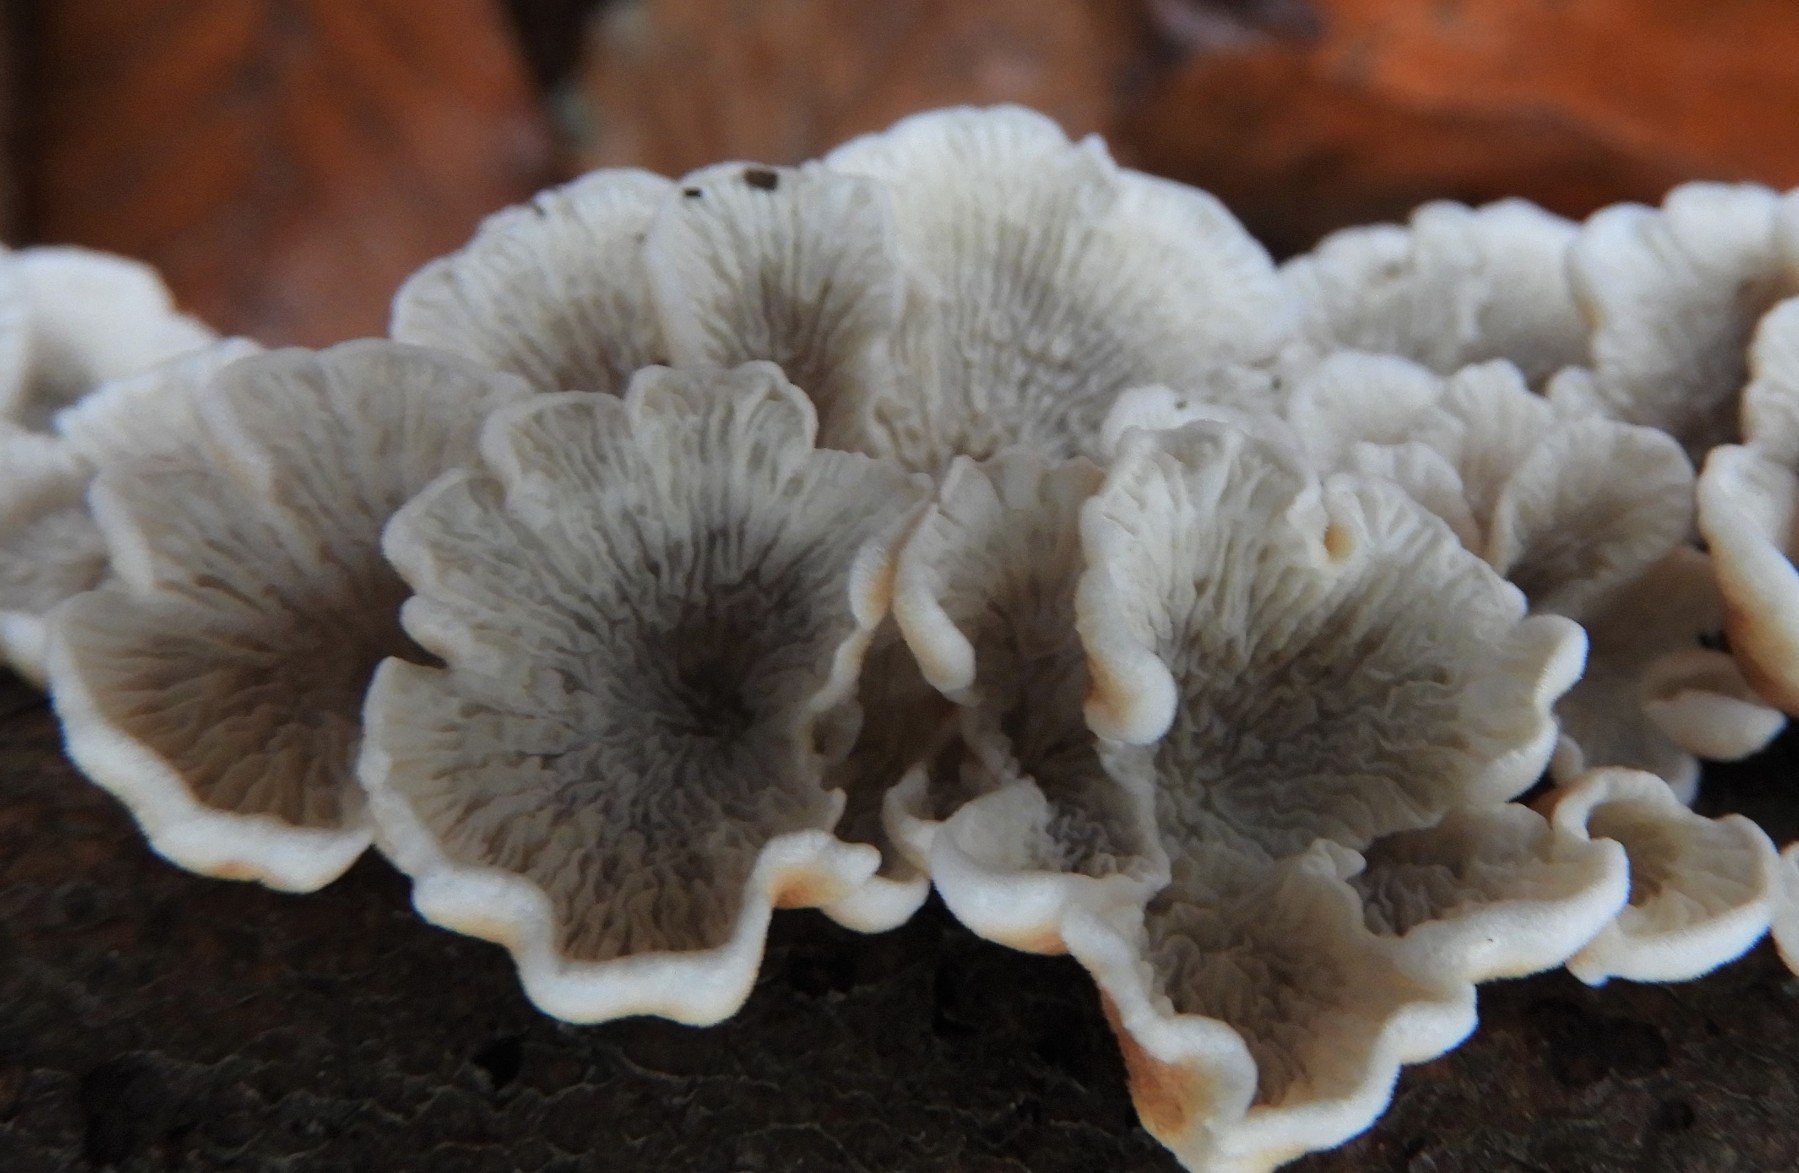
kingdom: Fungi
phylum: Basidiomycota
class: Agaricomycetes
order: Amylocorticiales
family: Amylocorticiaceae
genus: Plicaturopsis
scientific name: Plicaturopsis crispa
